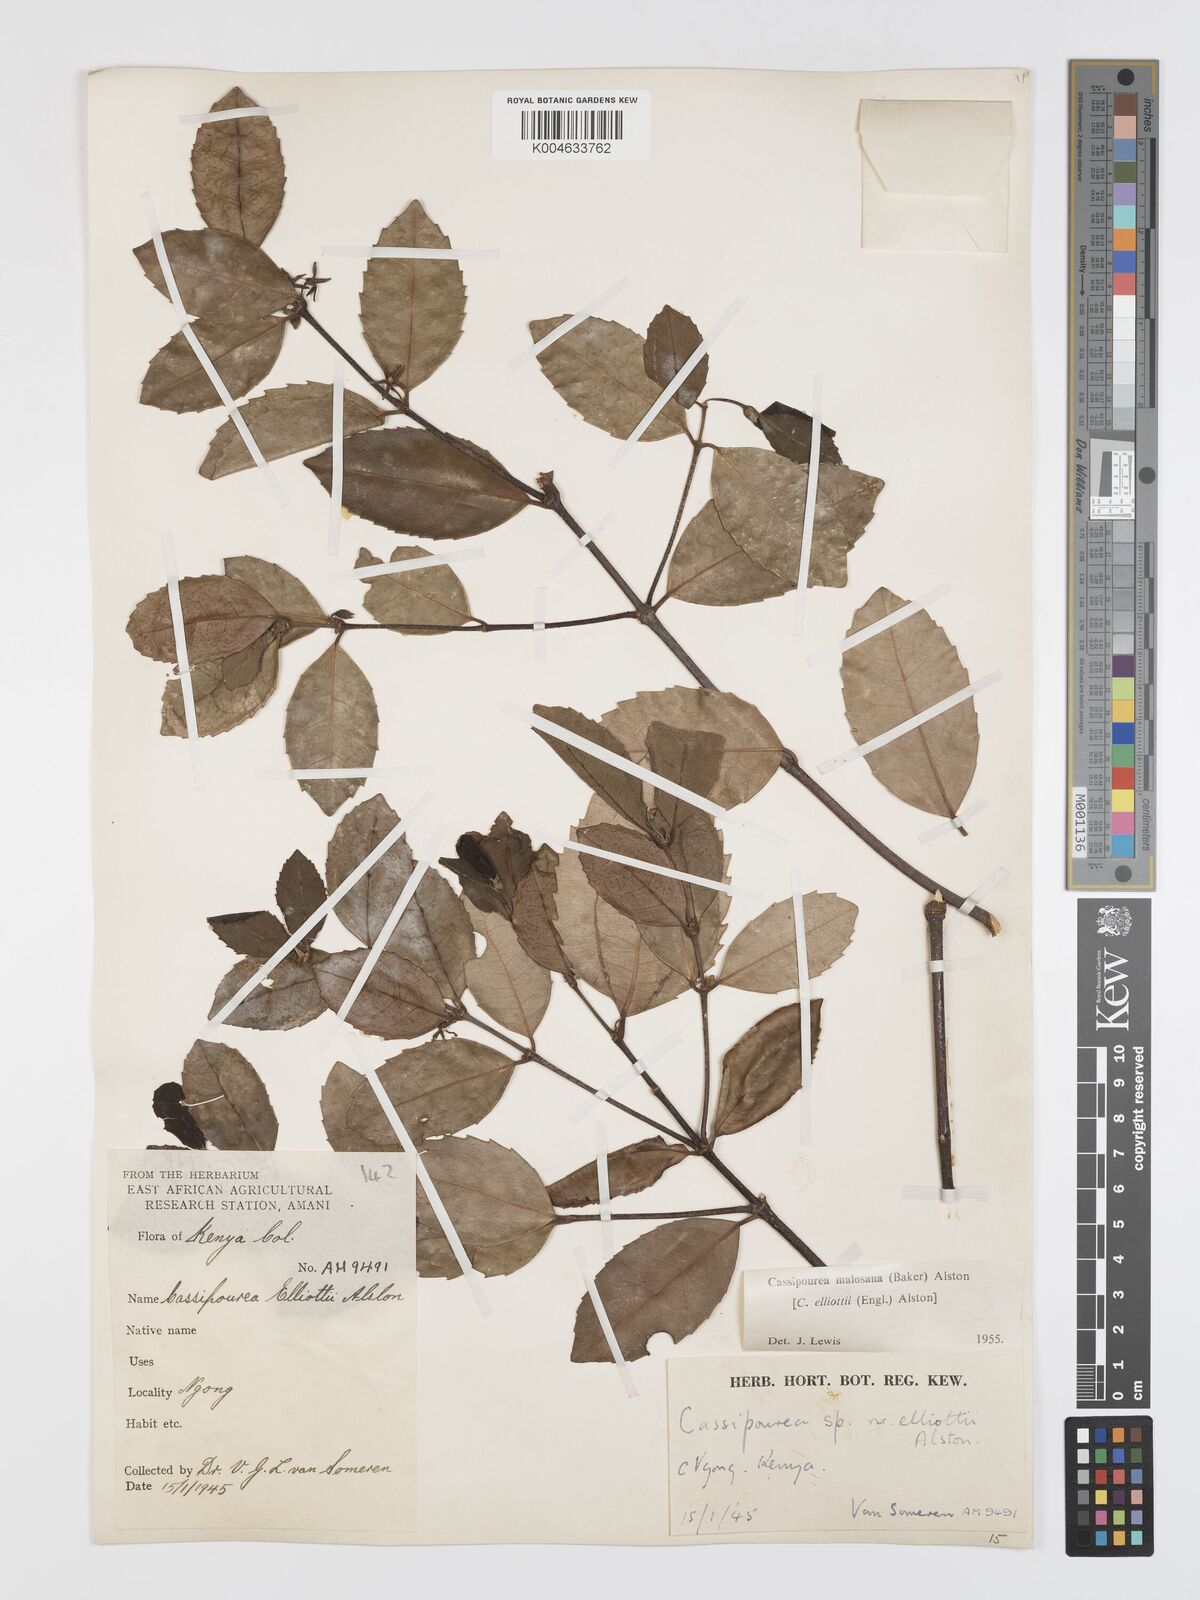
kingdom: Plantae
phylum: Tracheophyta
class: Magnoliopsida
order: Malpighiales
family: Rhizophoraceae
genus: Cassipourea
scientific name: Cassipourea malosana
